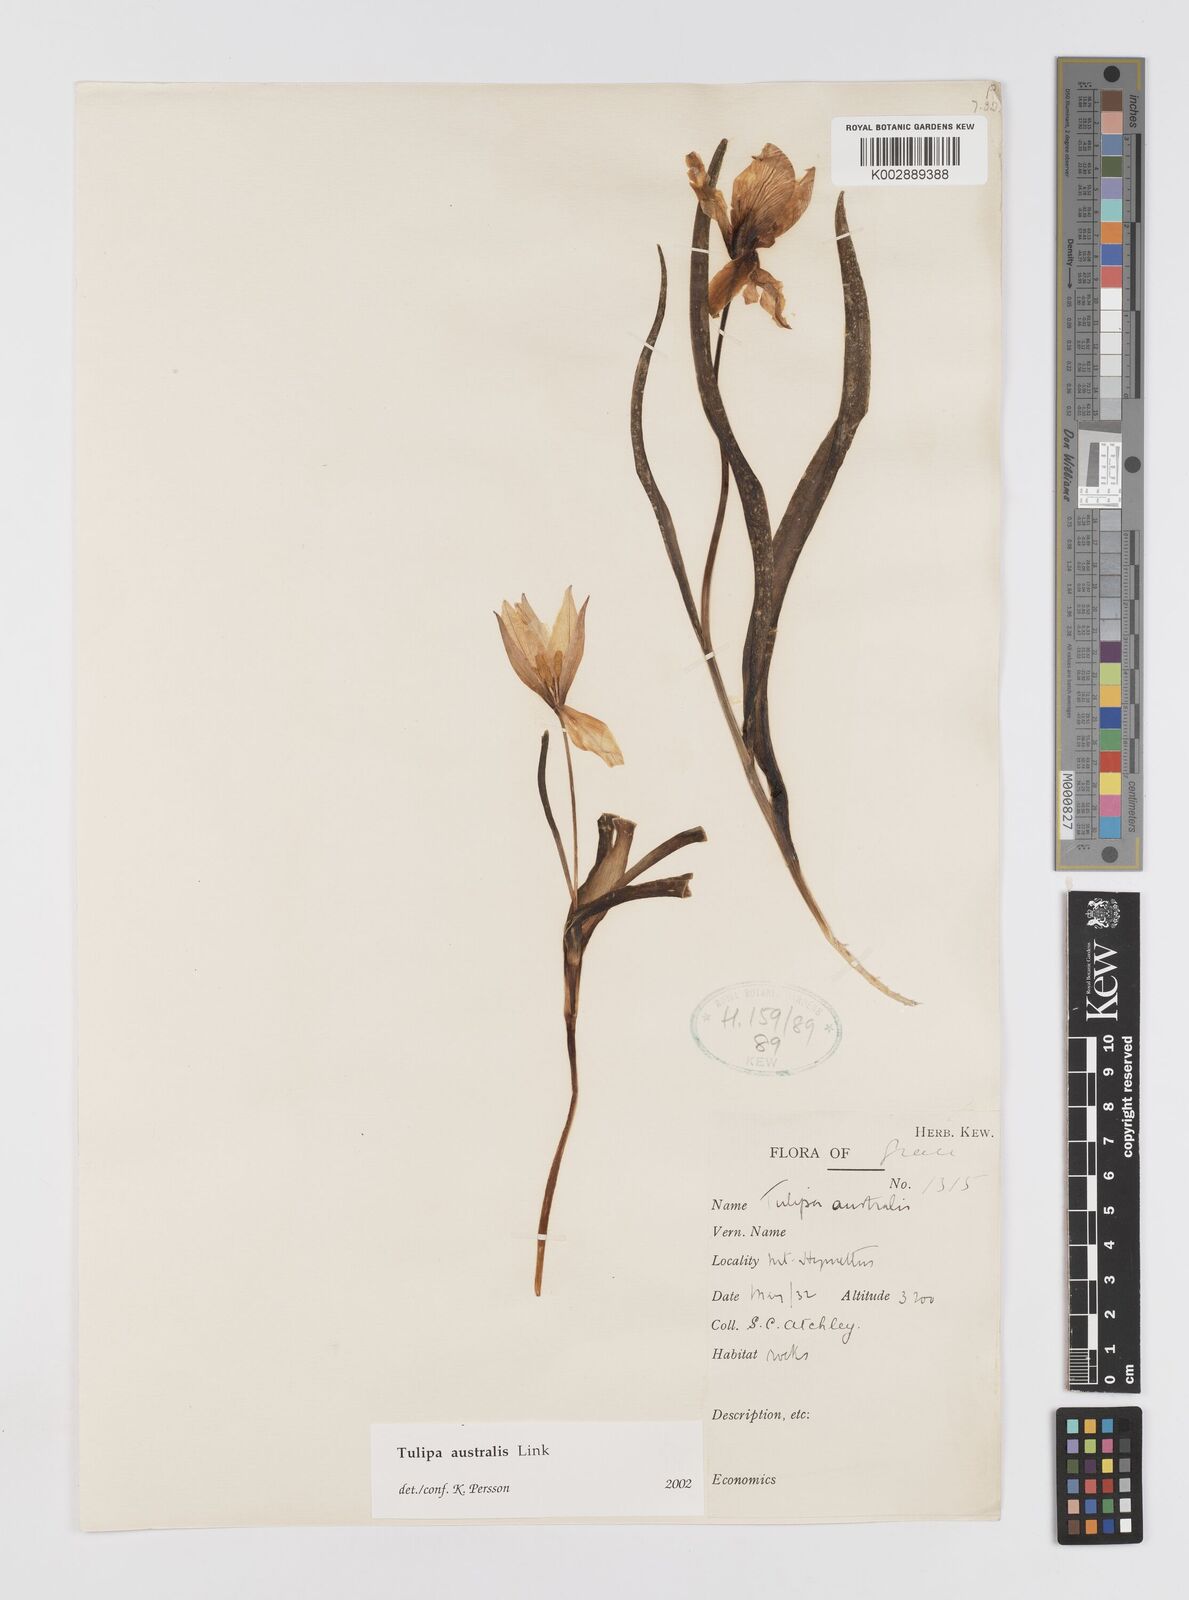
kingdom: Plantae
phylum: Tracheophyta
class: Liliopsida
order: Liliales
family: Liliaceae
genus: Tulipa
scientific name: Tulipa sylvestris
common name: Wild tulip
